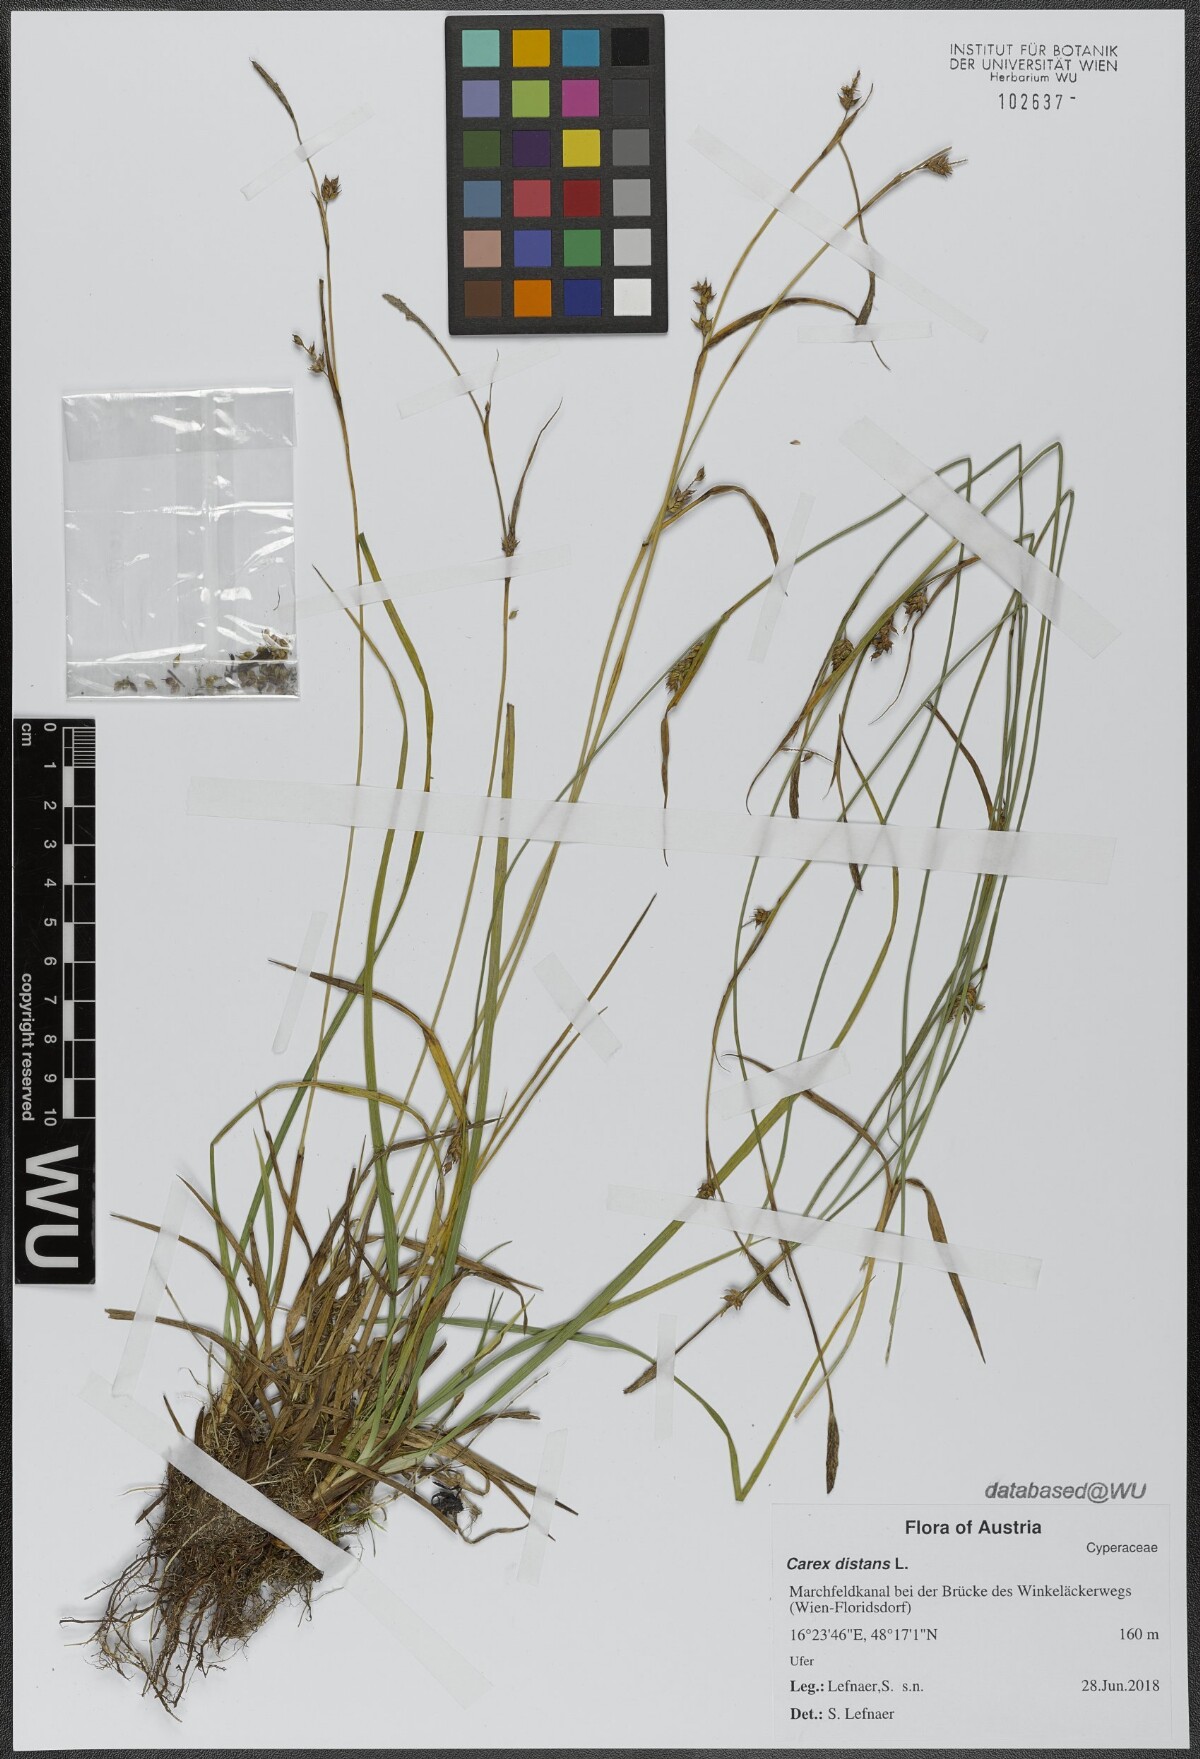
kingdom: Plantae
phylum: Tracheophyta
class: Liliopsida
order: Poales
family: Cyperaceae
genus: Carex
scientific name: Carex distans
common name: Distant sedge
